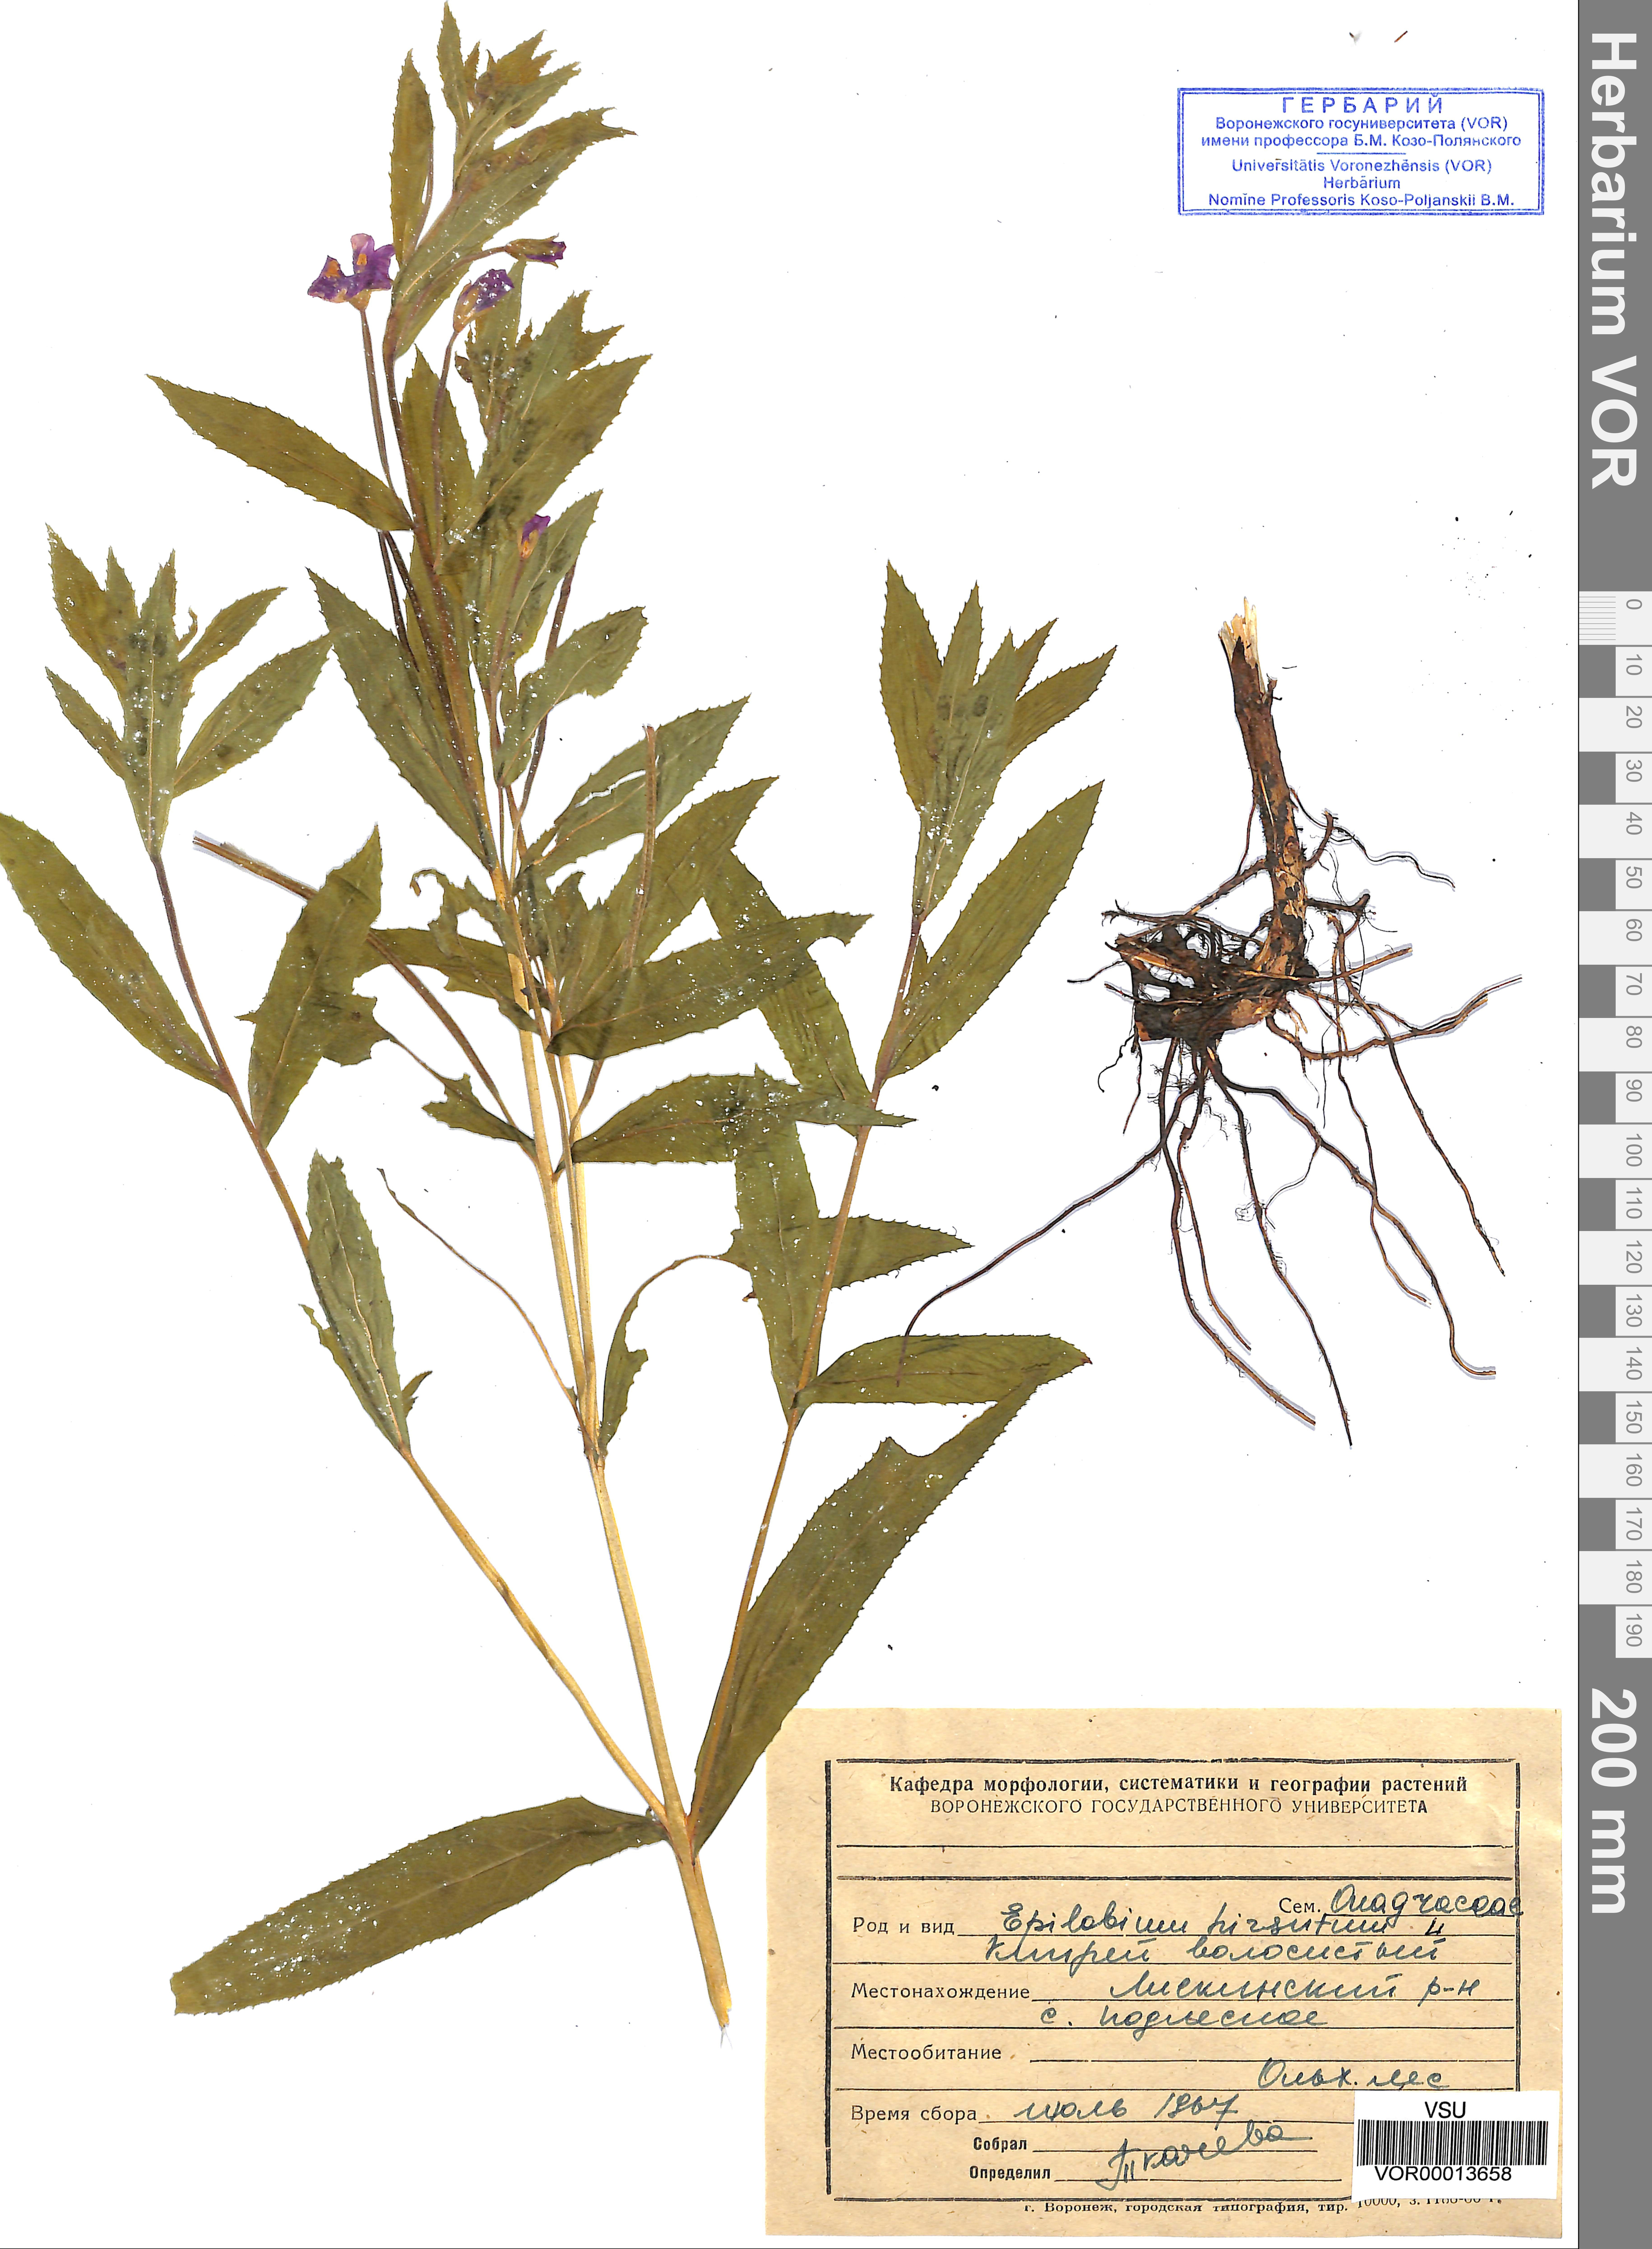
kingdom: Plantae
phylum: Tracheophyta
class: Magnoliopsida
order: Myrtales
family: Onagraceae
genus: Epilobium
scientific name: Epilobium hirsutum
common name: Great willowherb
